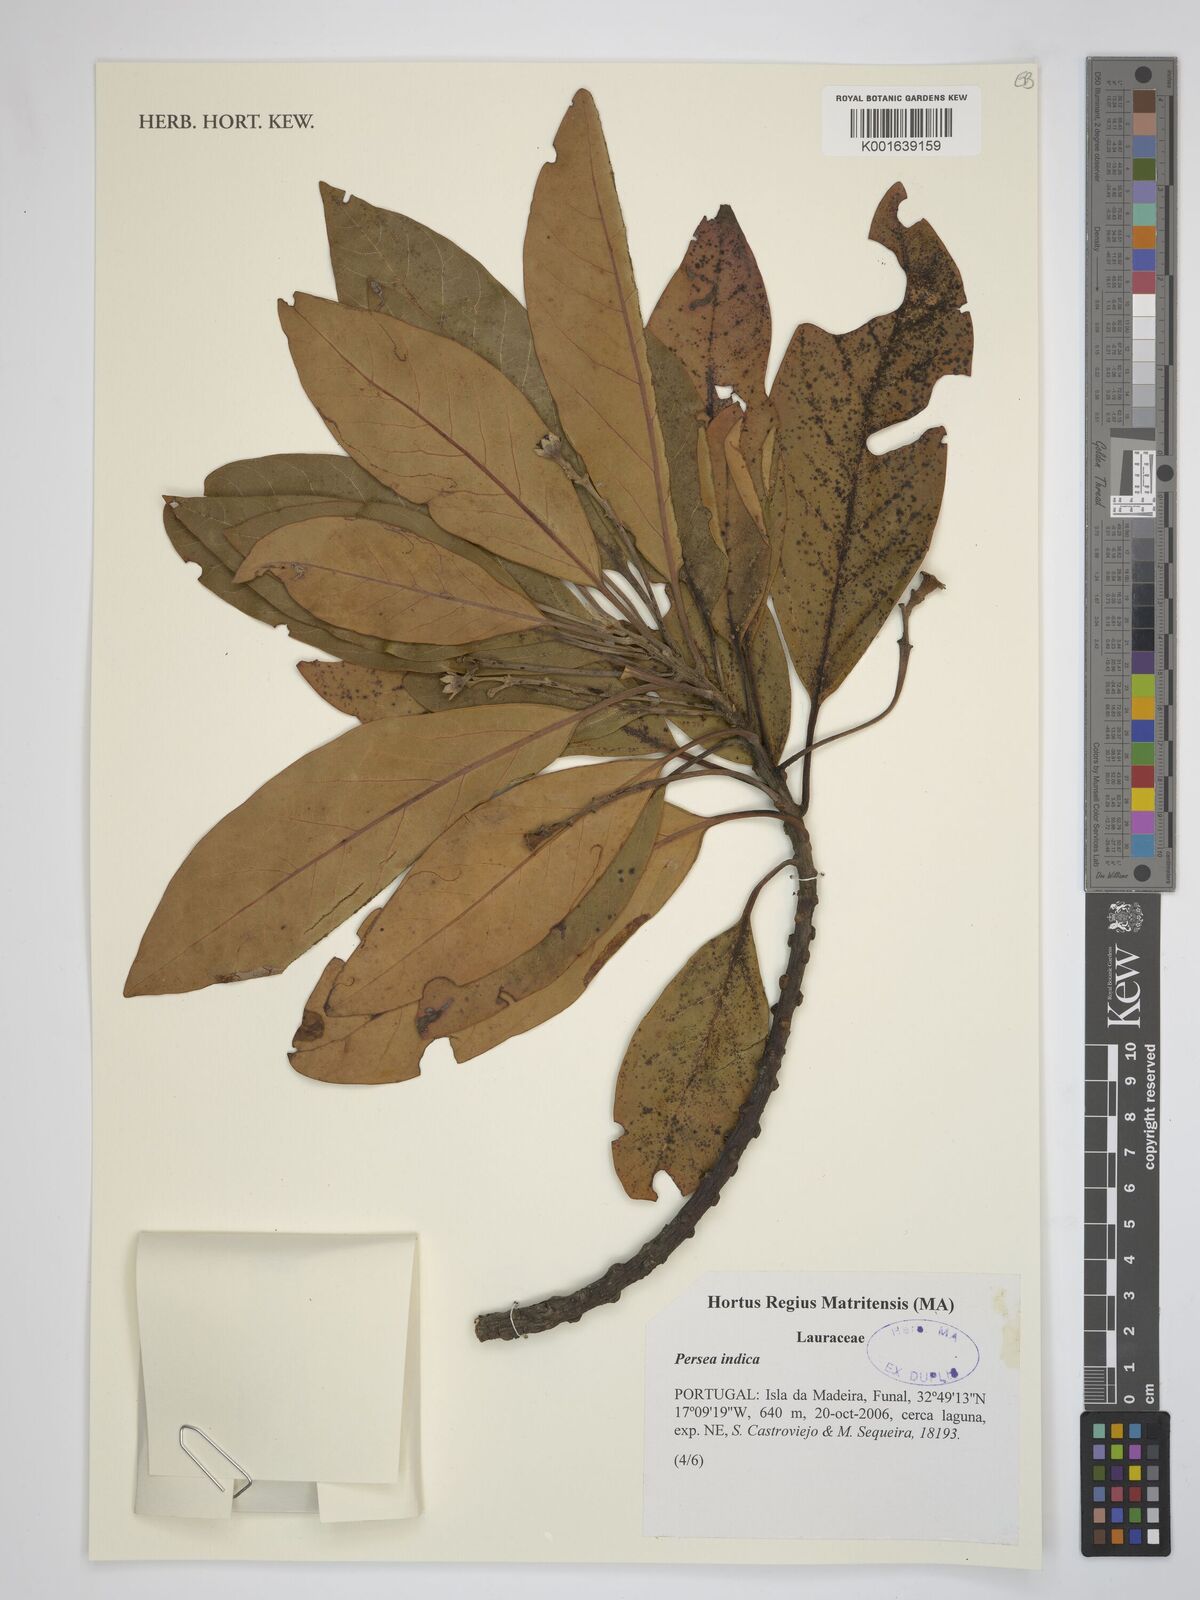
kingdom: Plantae
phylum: Tracheophyta
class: Magnoliopsida
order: Laurales
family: Lauraceae
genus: Persea
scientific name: Persea indica
